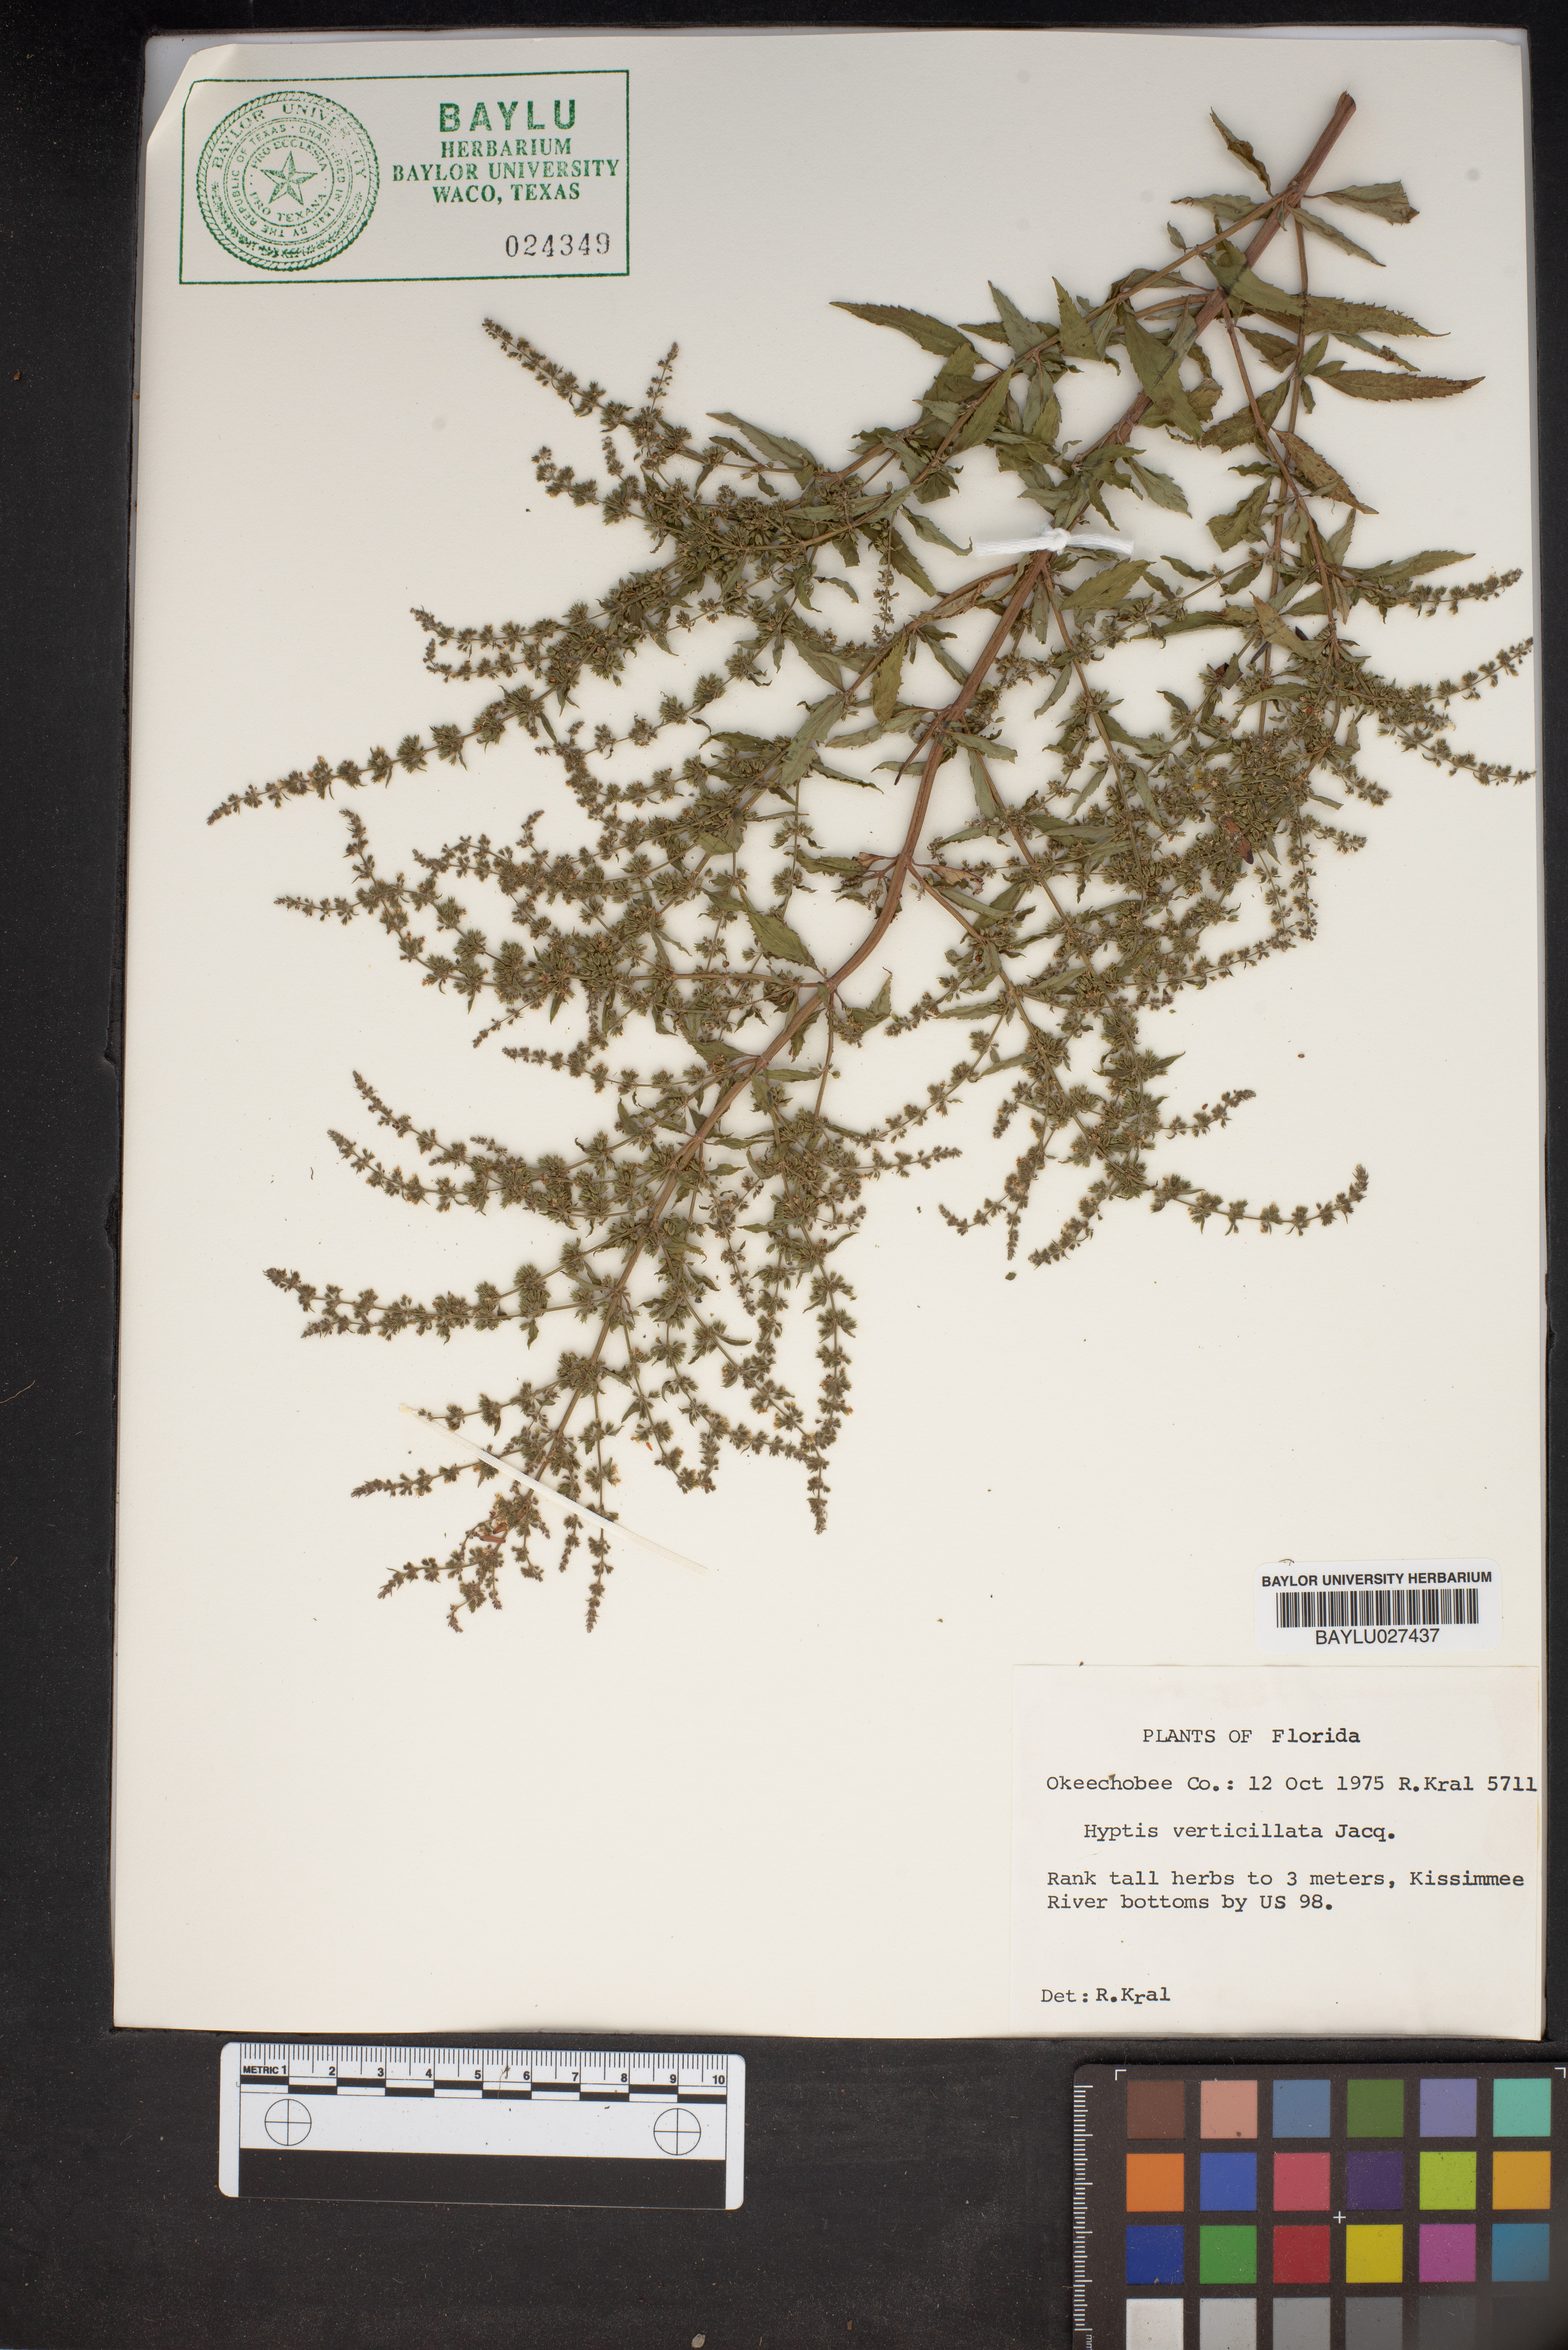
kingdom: Plantae
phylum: Tracheophyta
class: Magnoliopsida
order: Lamiales
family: Lamiaceae
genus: Condea
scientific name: Condea verticillata
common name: John charles
